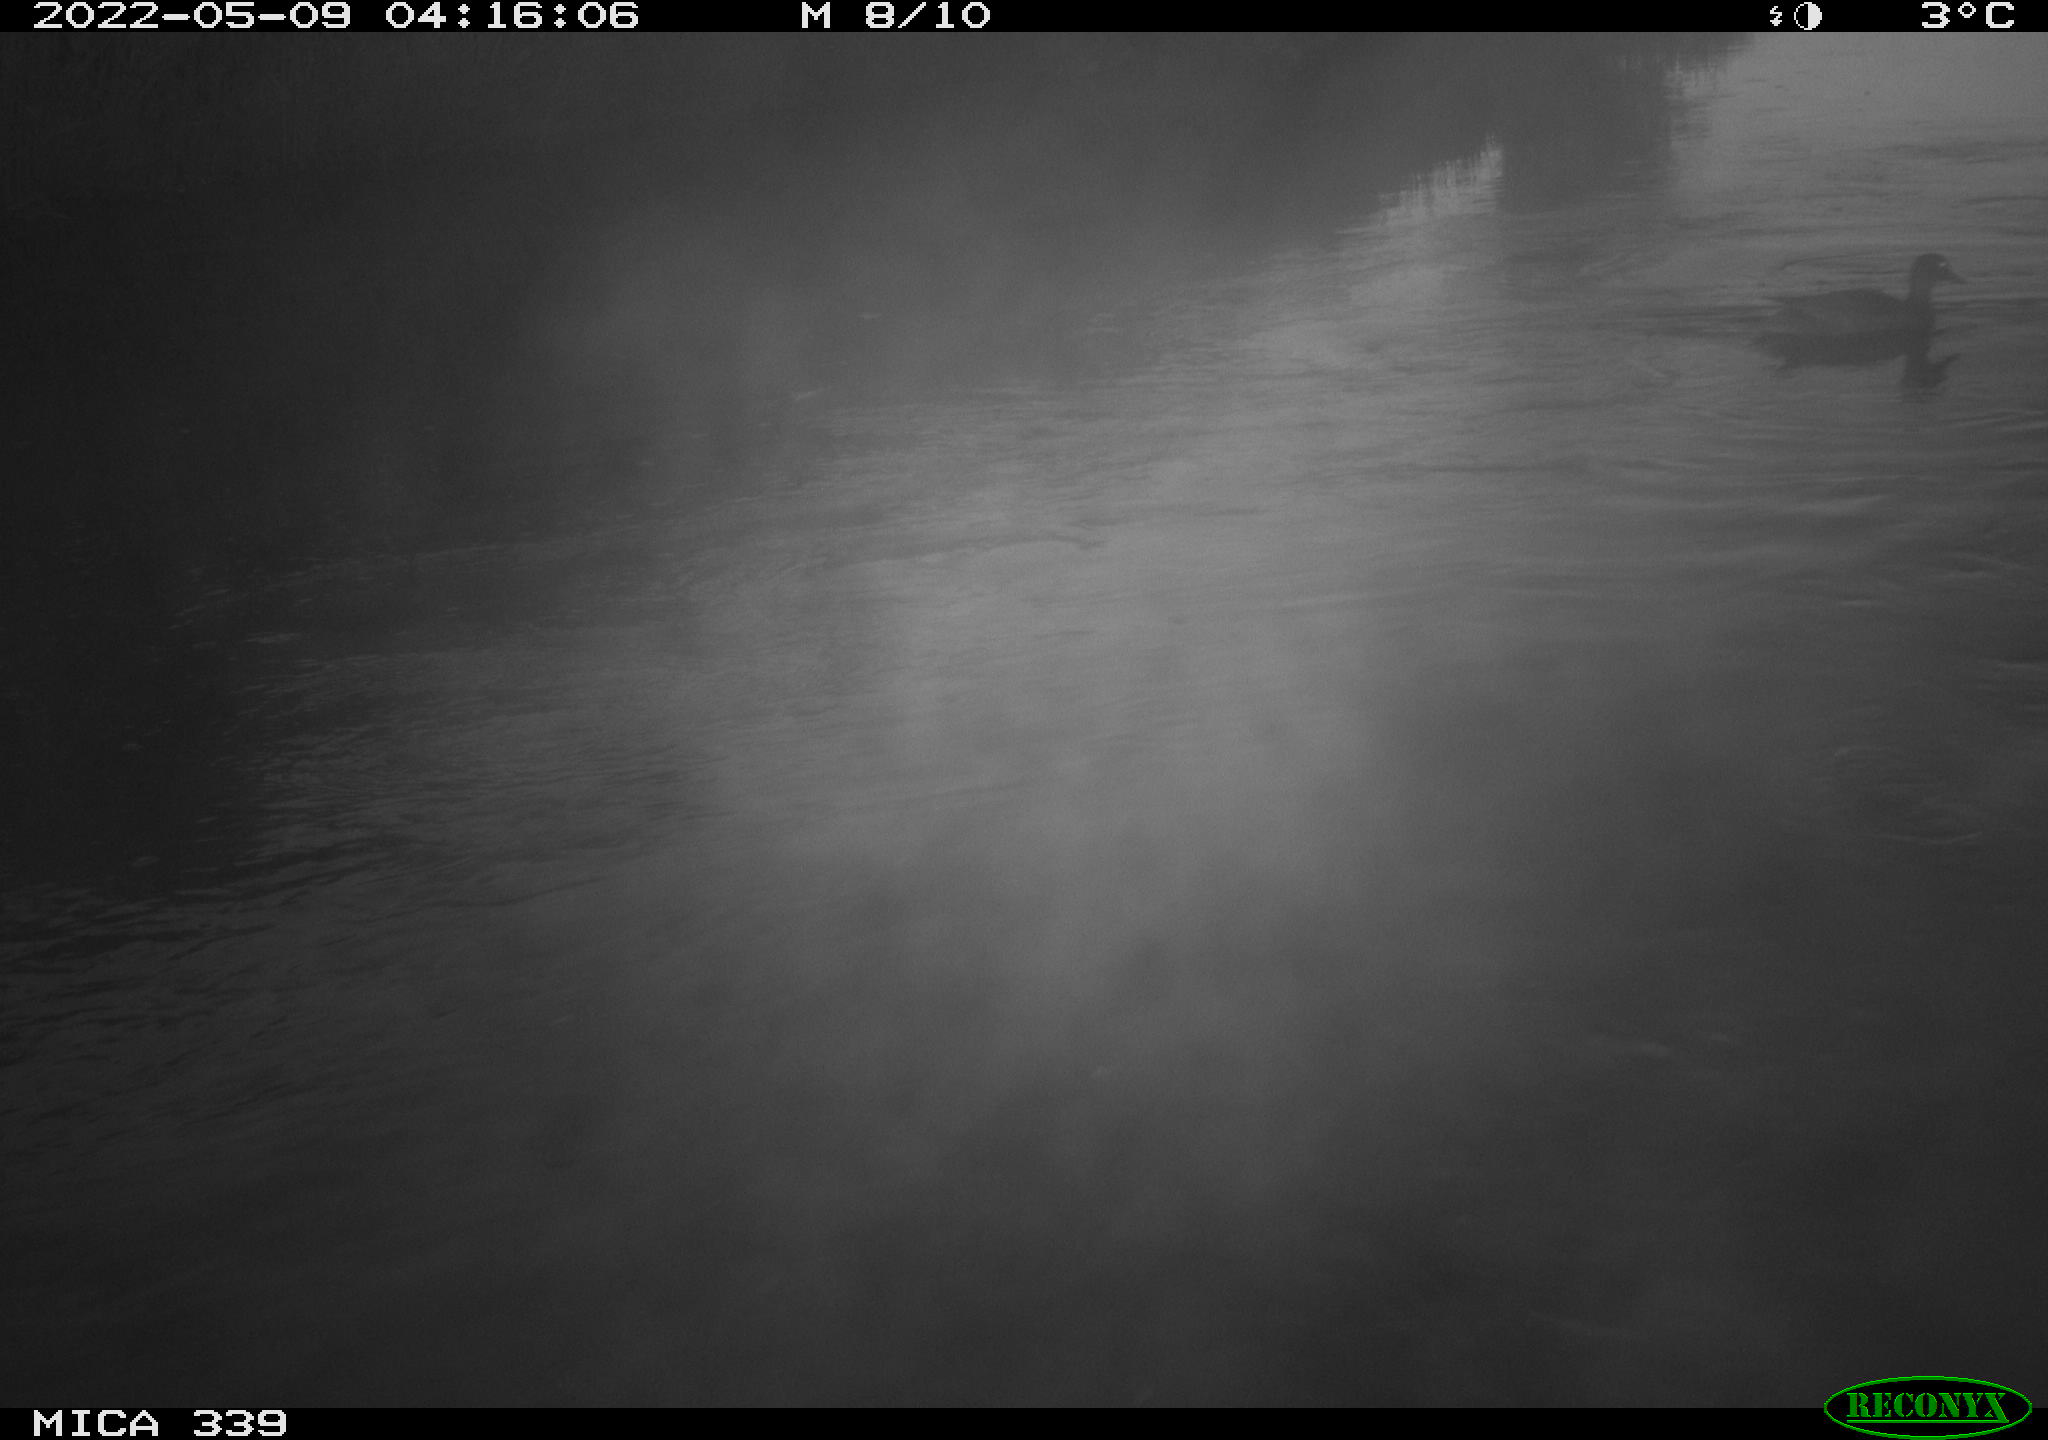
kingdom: Animalia
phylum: Chordata
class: Aves
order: Anseriformes
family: Anatidae
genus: Anas
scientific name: Anas platyrhynchos
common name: Mallard
